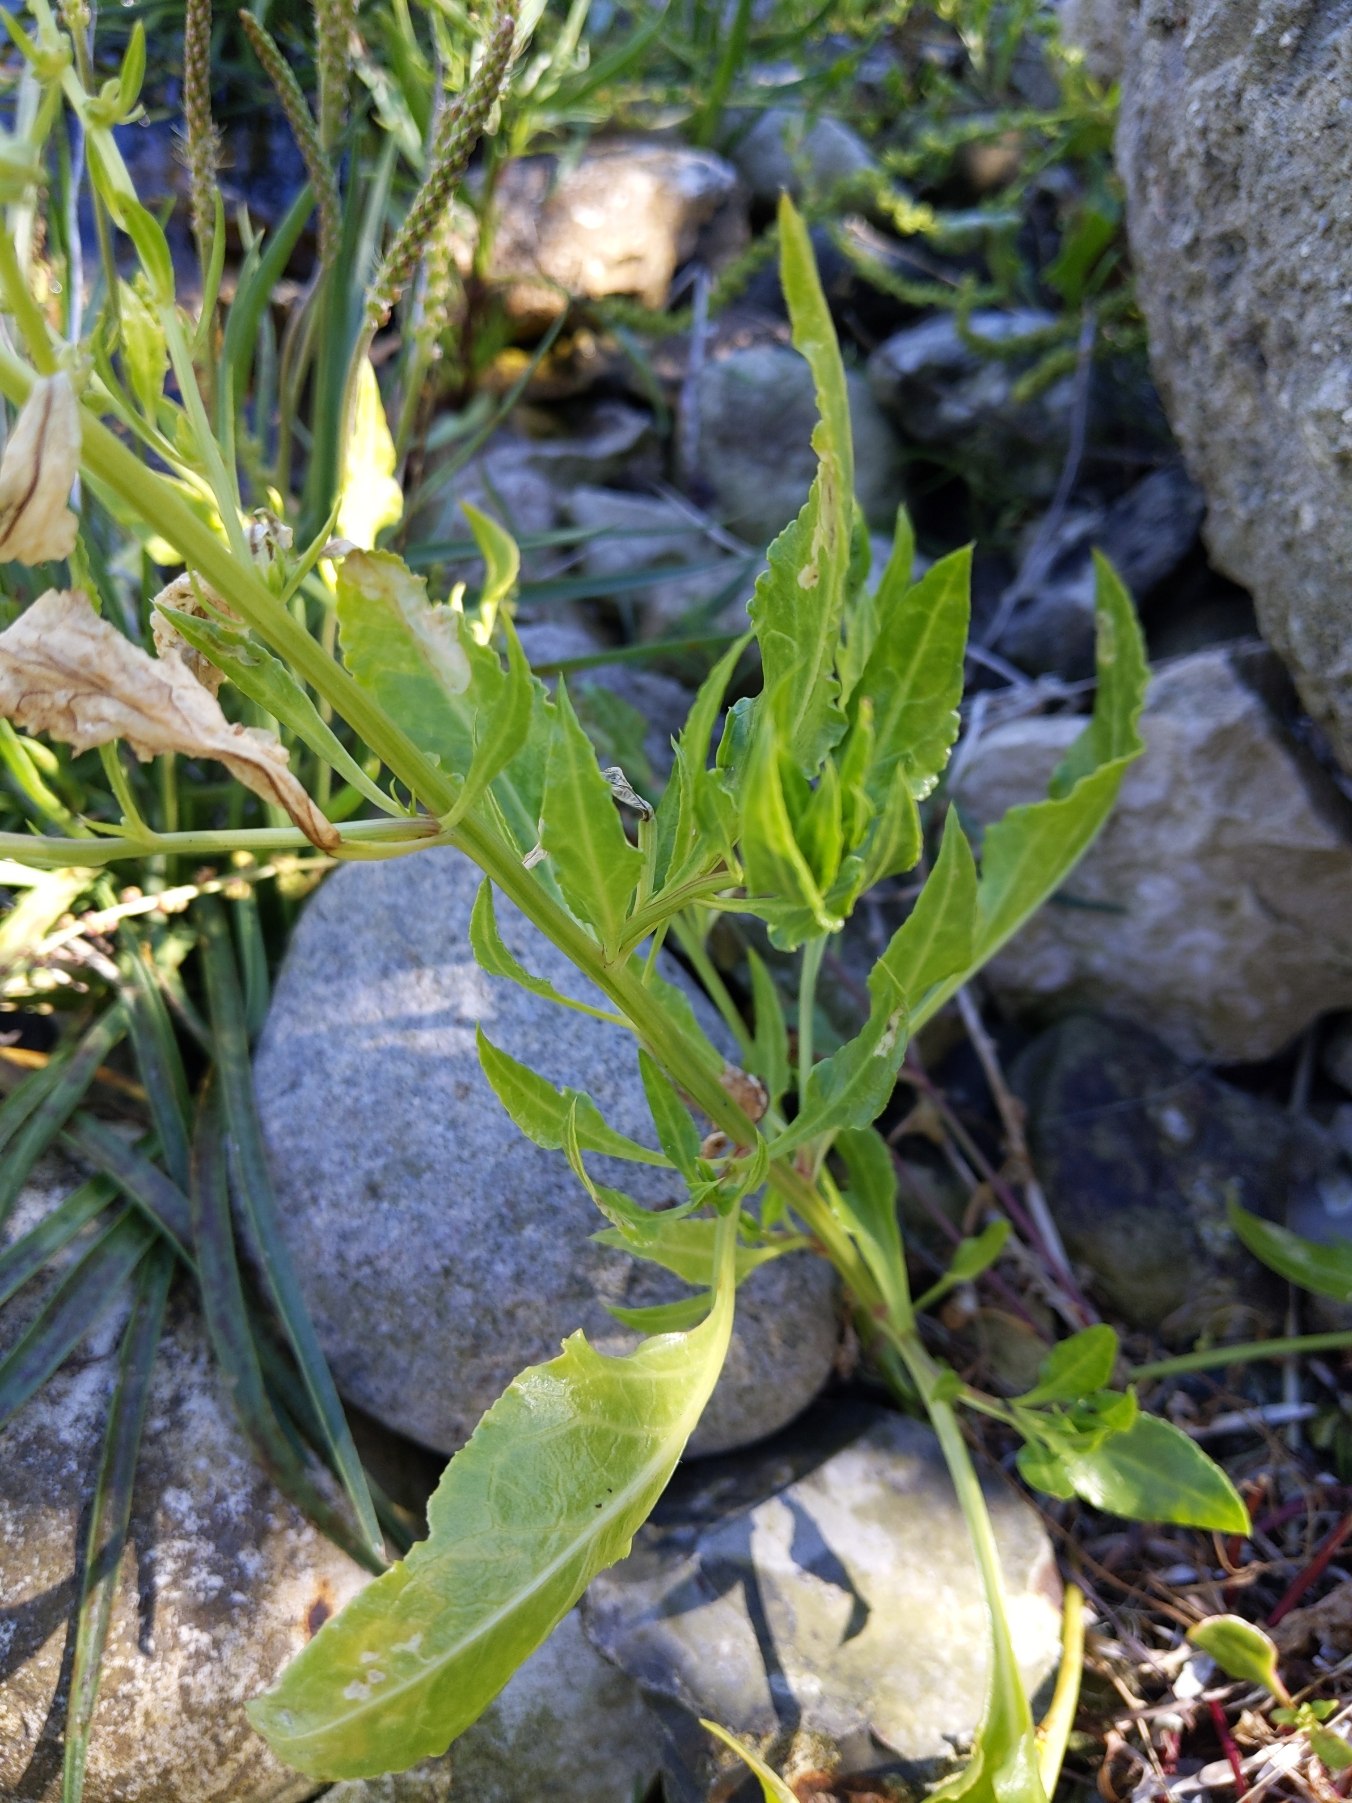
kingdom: Plantae
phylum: Tracheophyta
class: Magnoliopsida
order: Caryophyllales
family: Amaranthaceae
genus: Beta
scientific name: Beta maritima
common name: Strand-bede
